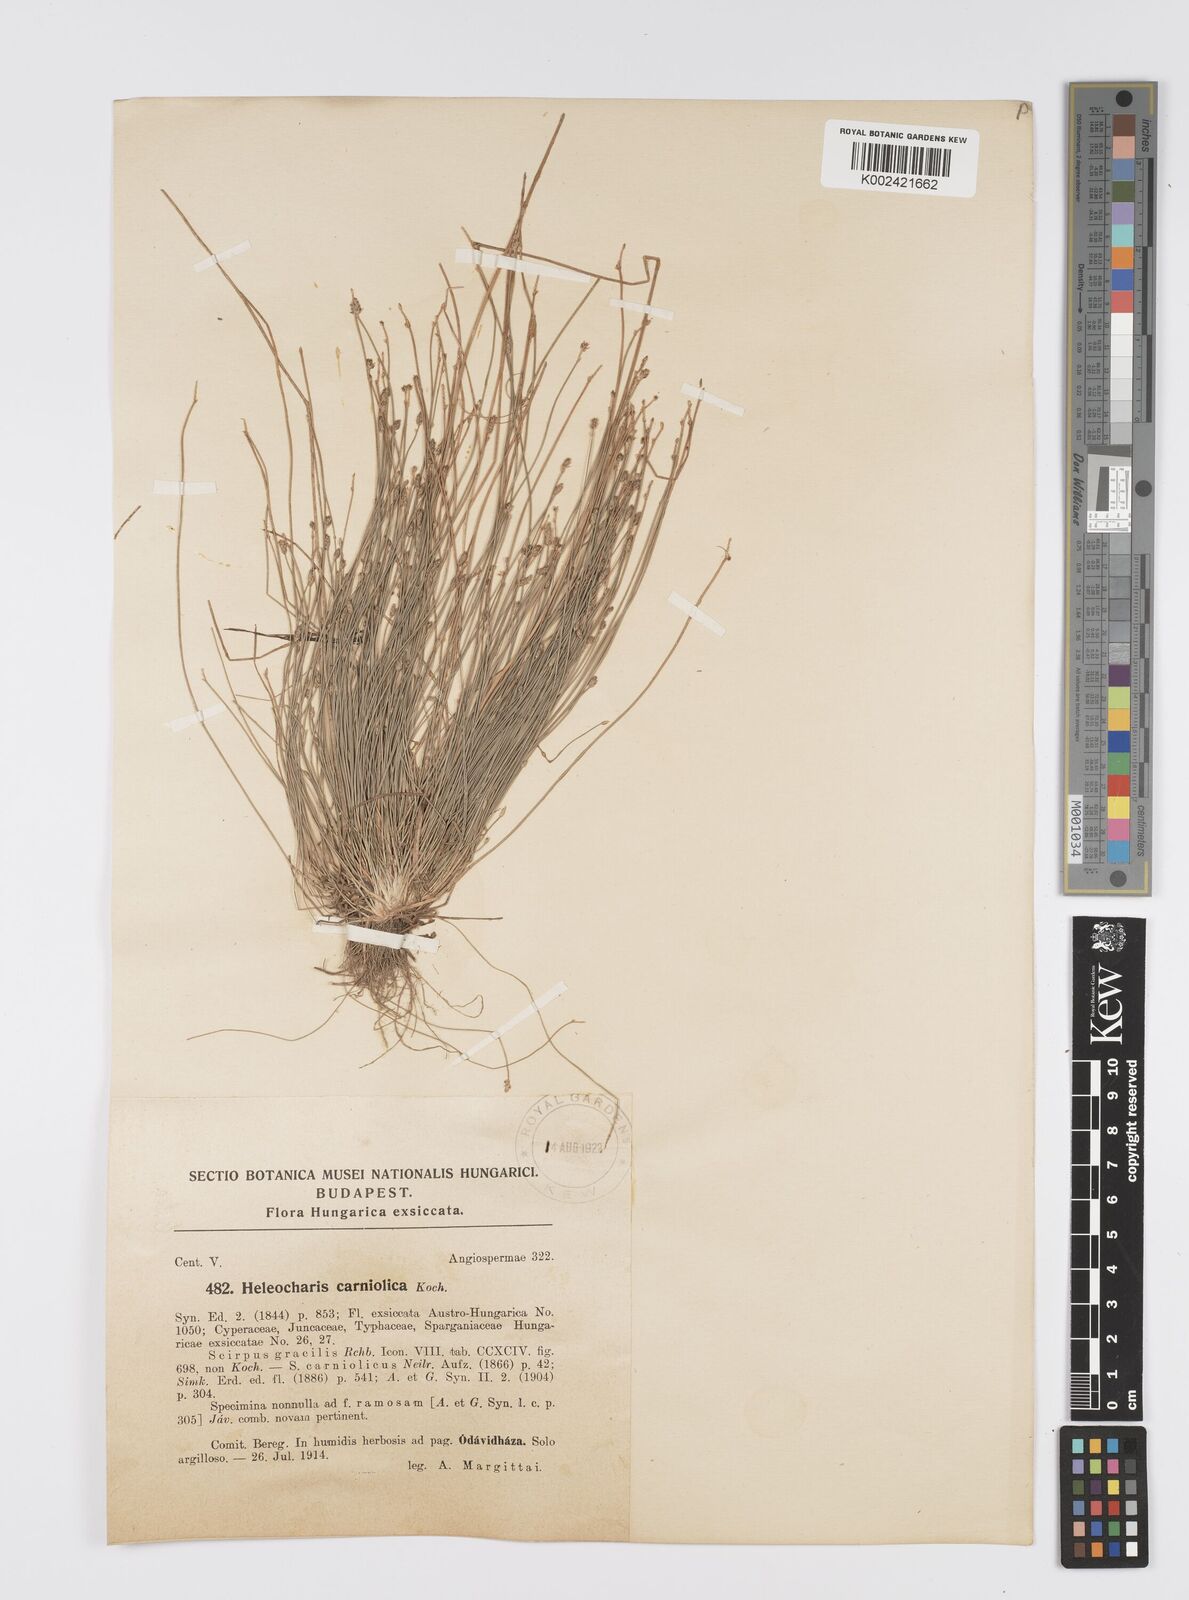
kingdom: Plantae
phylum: Tracheophyta
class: Liliopsida
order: Poales
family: Cyperaceae
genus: Eleocharis
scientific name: Eleocharis carniolica
